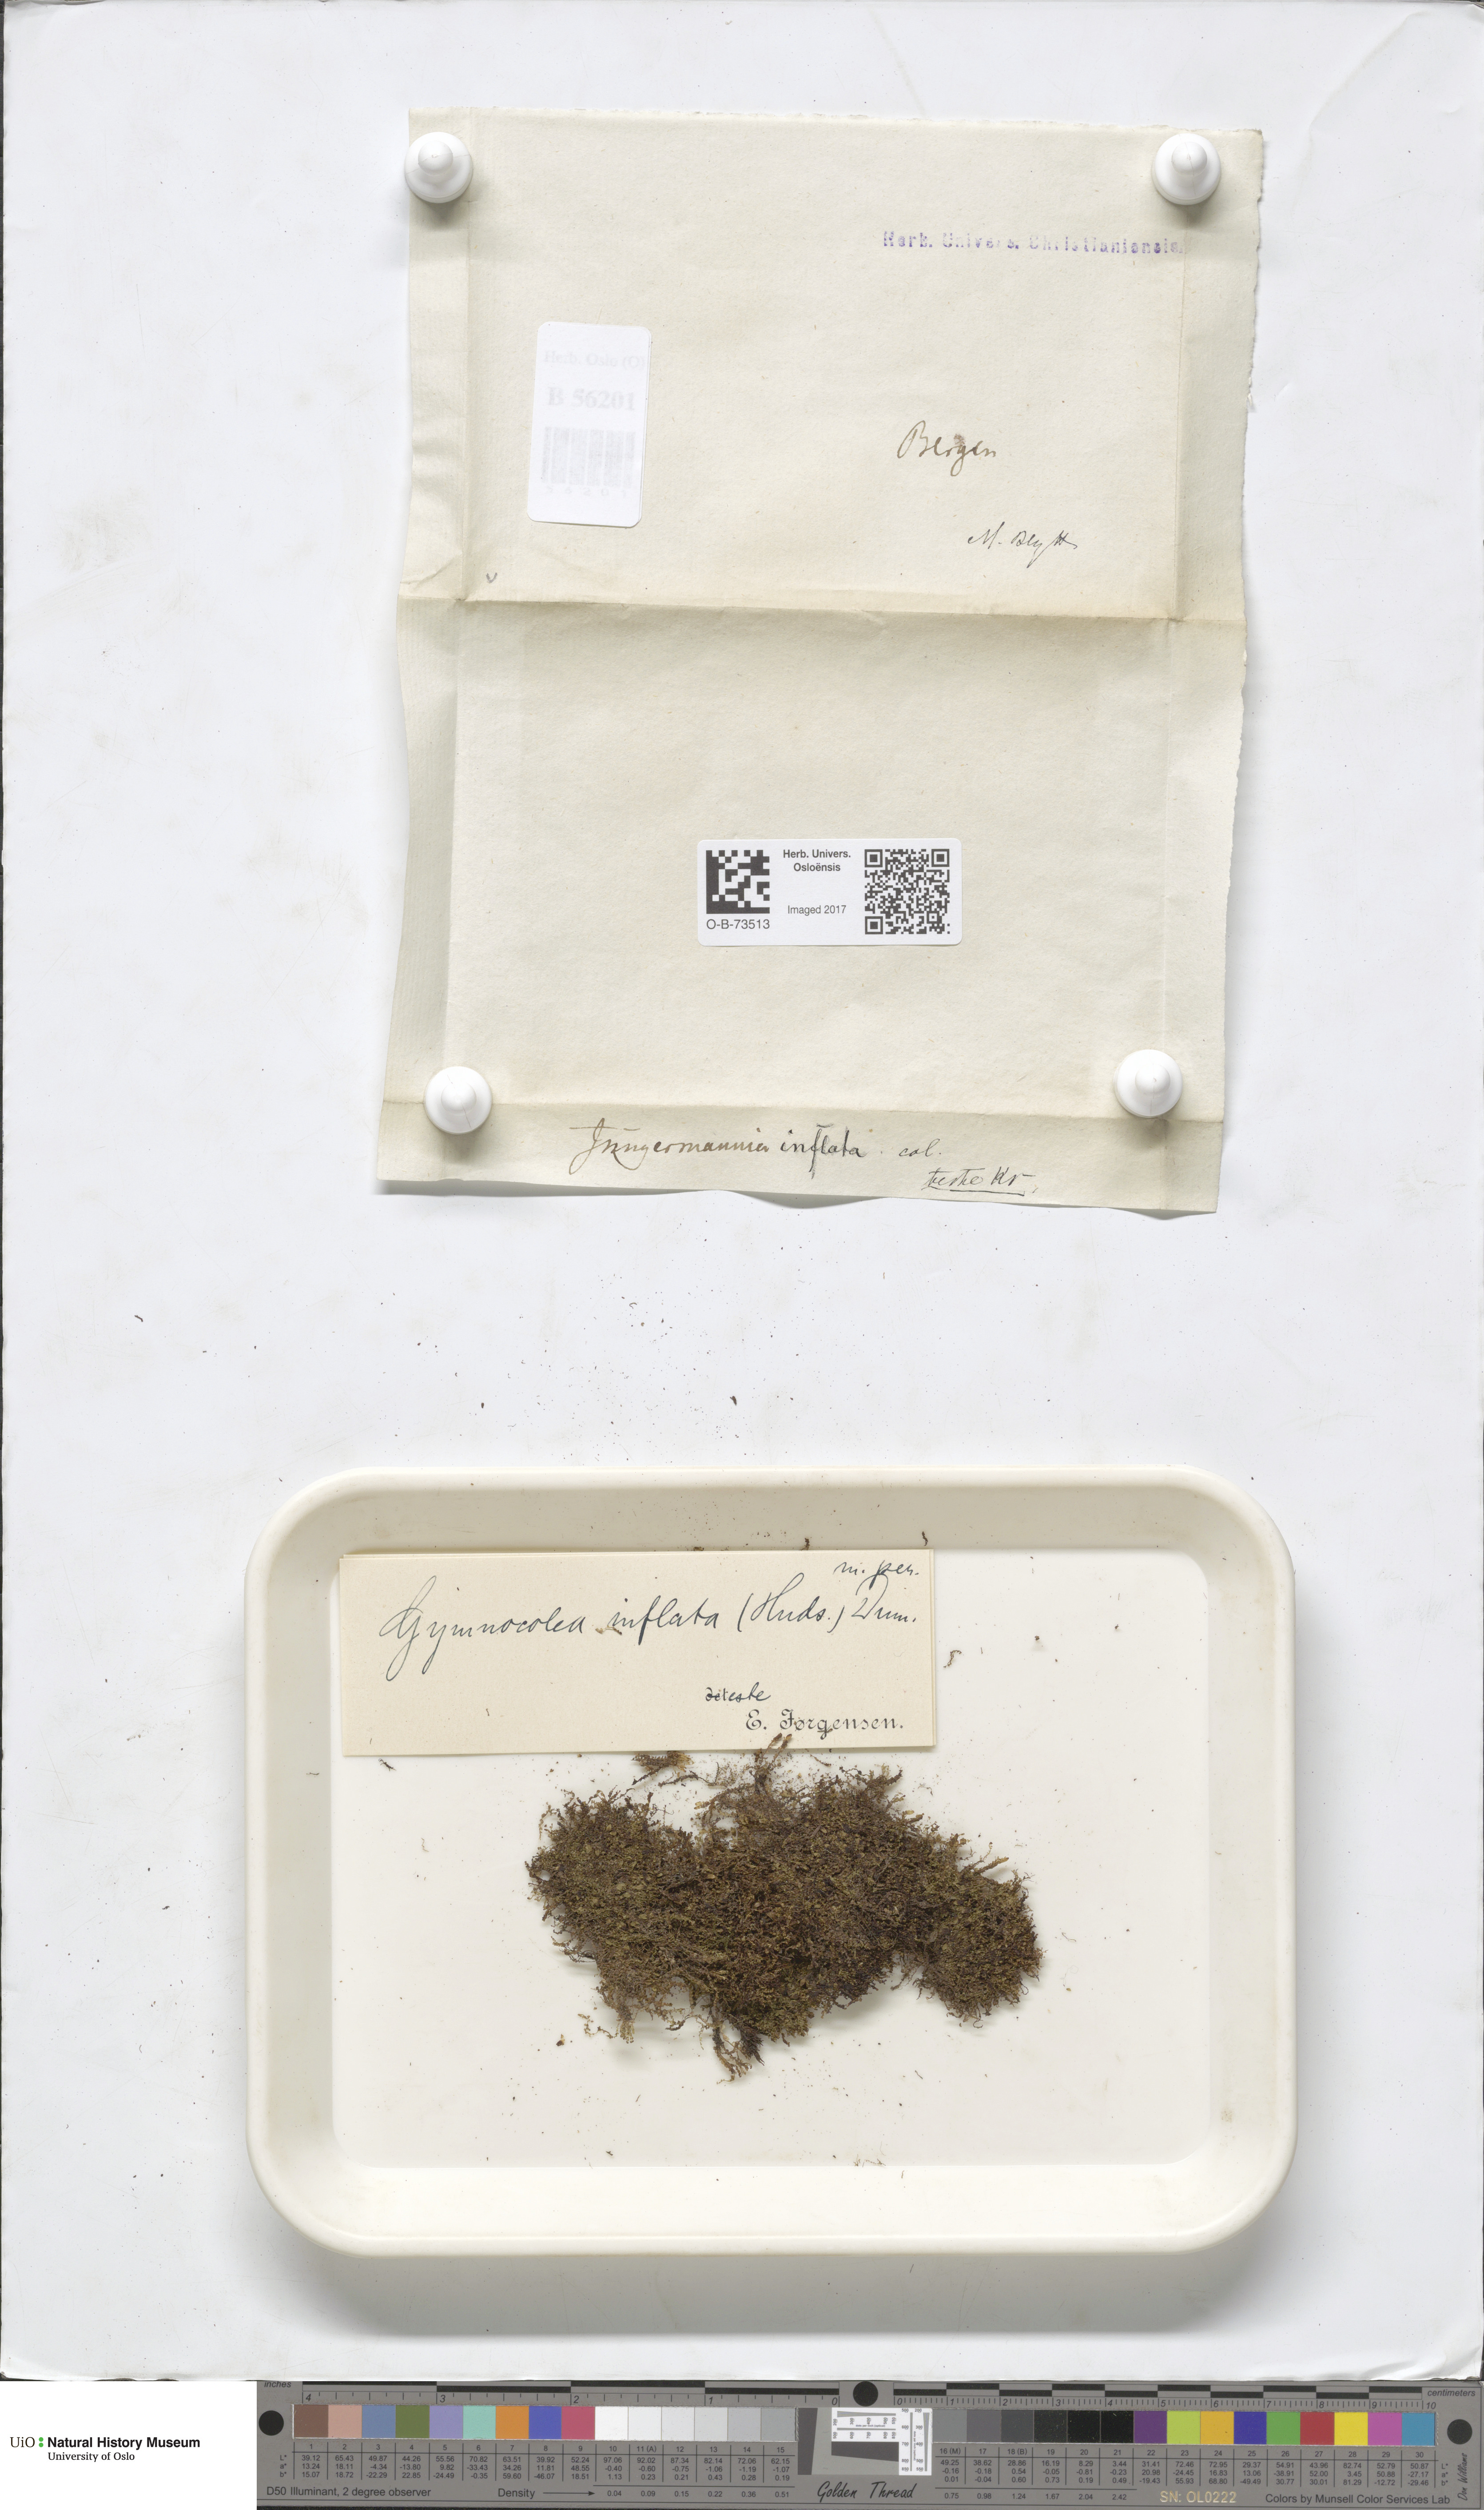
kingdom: Plantae
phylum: Marchantiophyta
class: Jungermanniopsida
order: Jungermanniales
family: Anastrophyllaceae
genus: Gymnocolea
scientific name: Gymnocolea inflata
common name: Inflated notchwort
